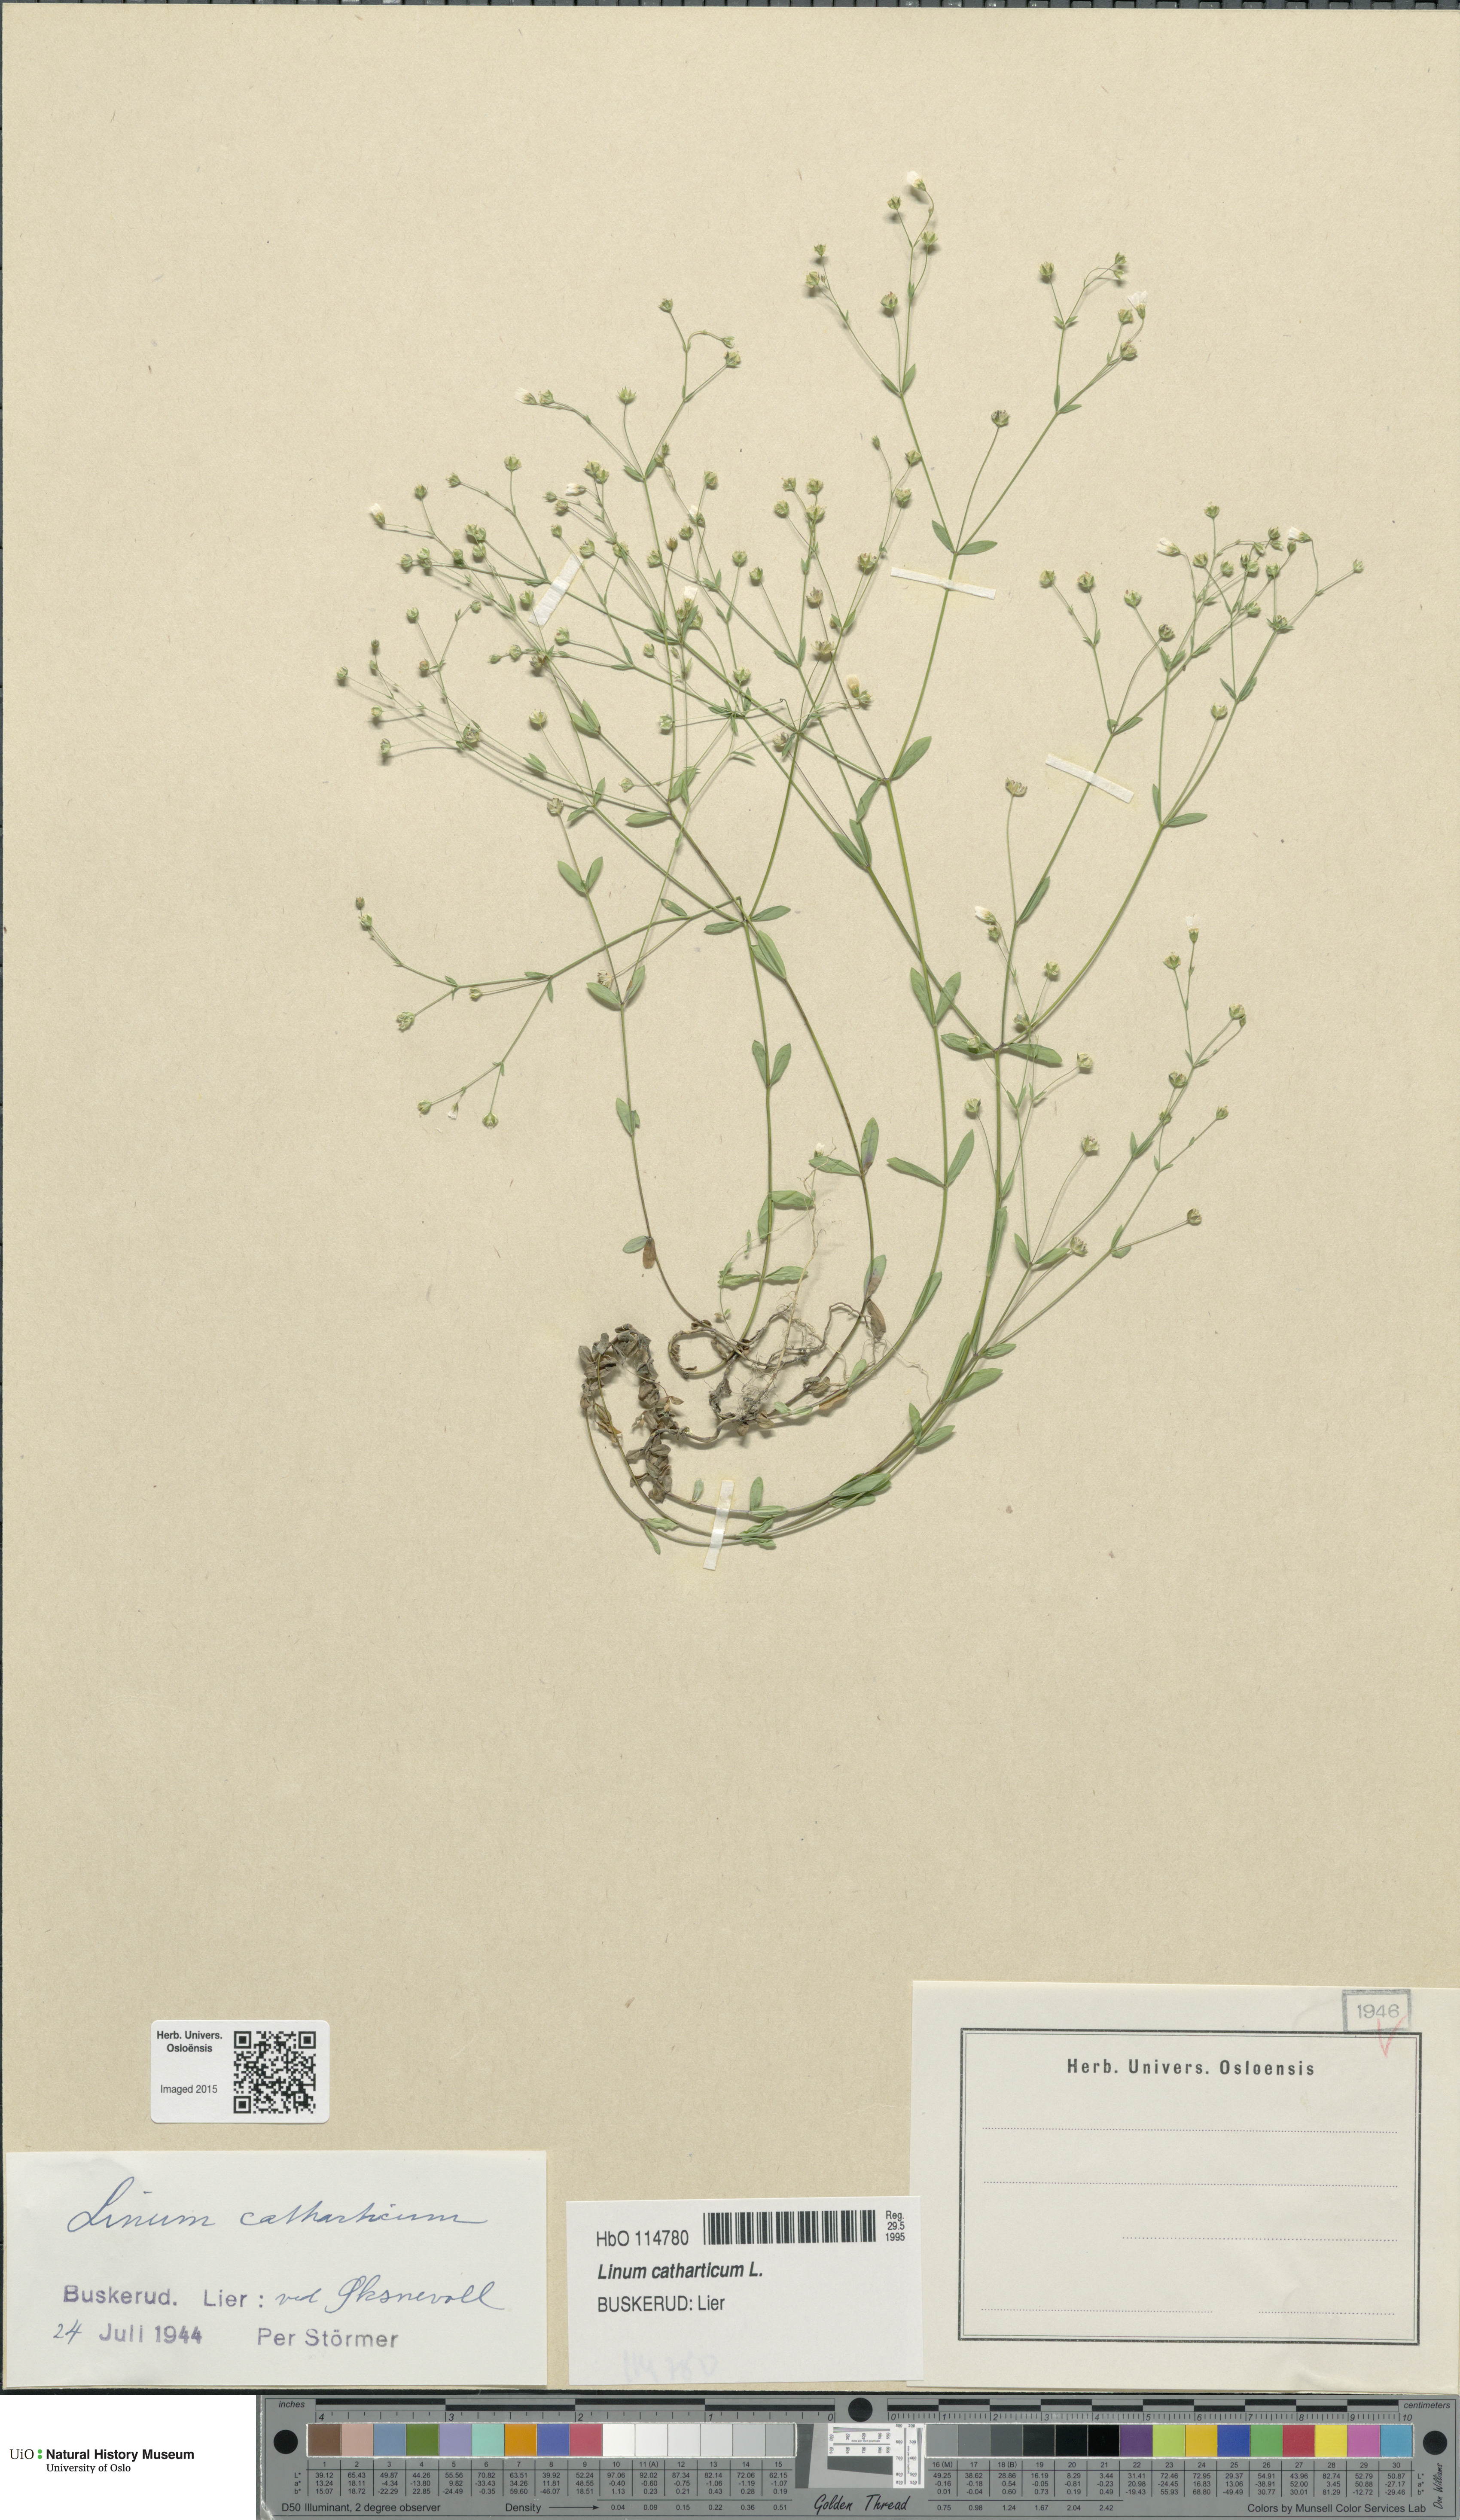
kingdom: Plantae
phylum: Tracheophyta
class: Magnoliopsida
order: Malpighiales
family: Linaceae
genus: Linum
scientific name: Linum catharticum
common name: Fairy flax
